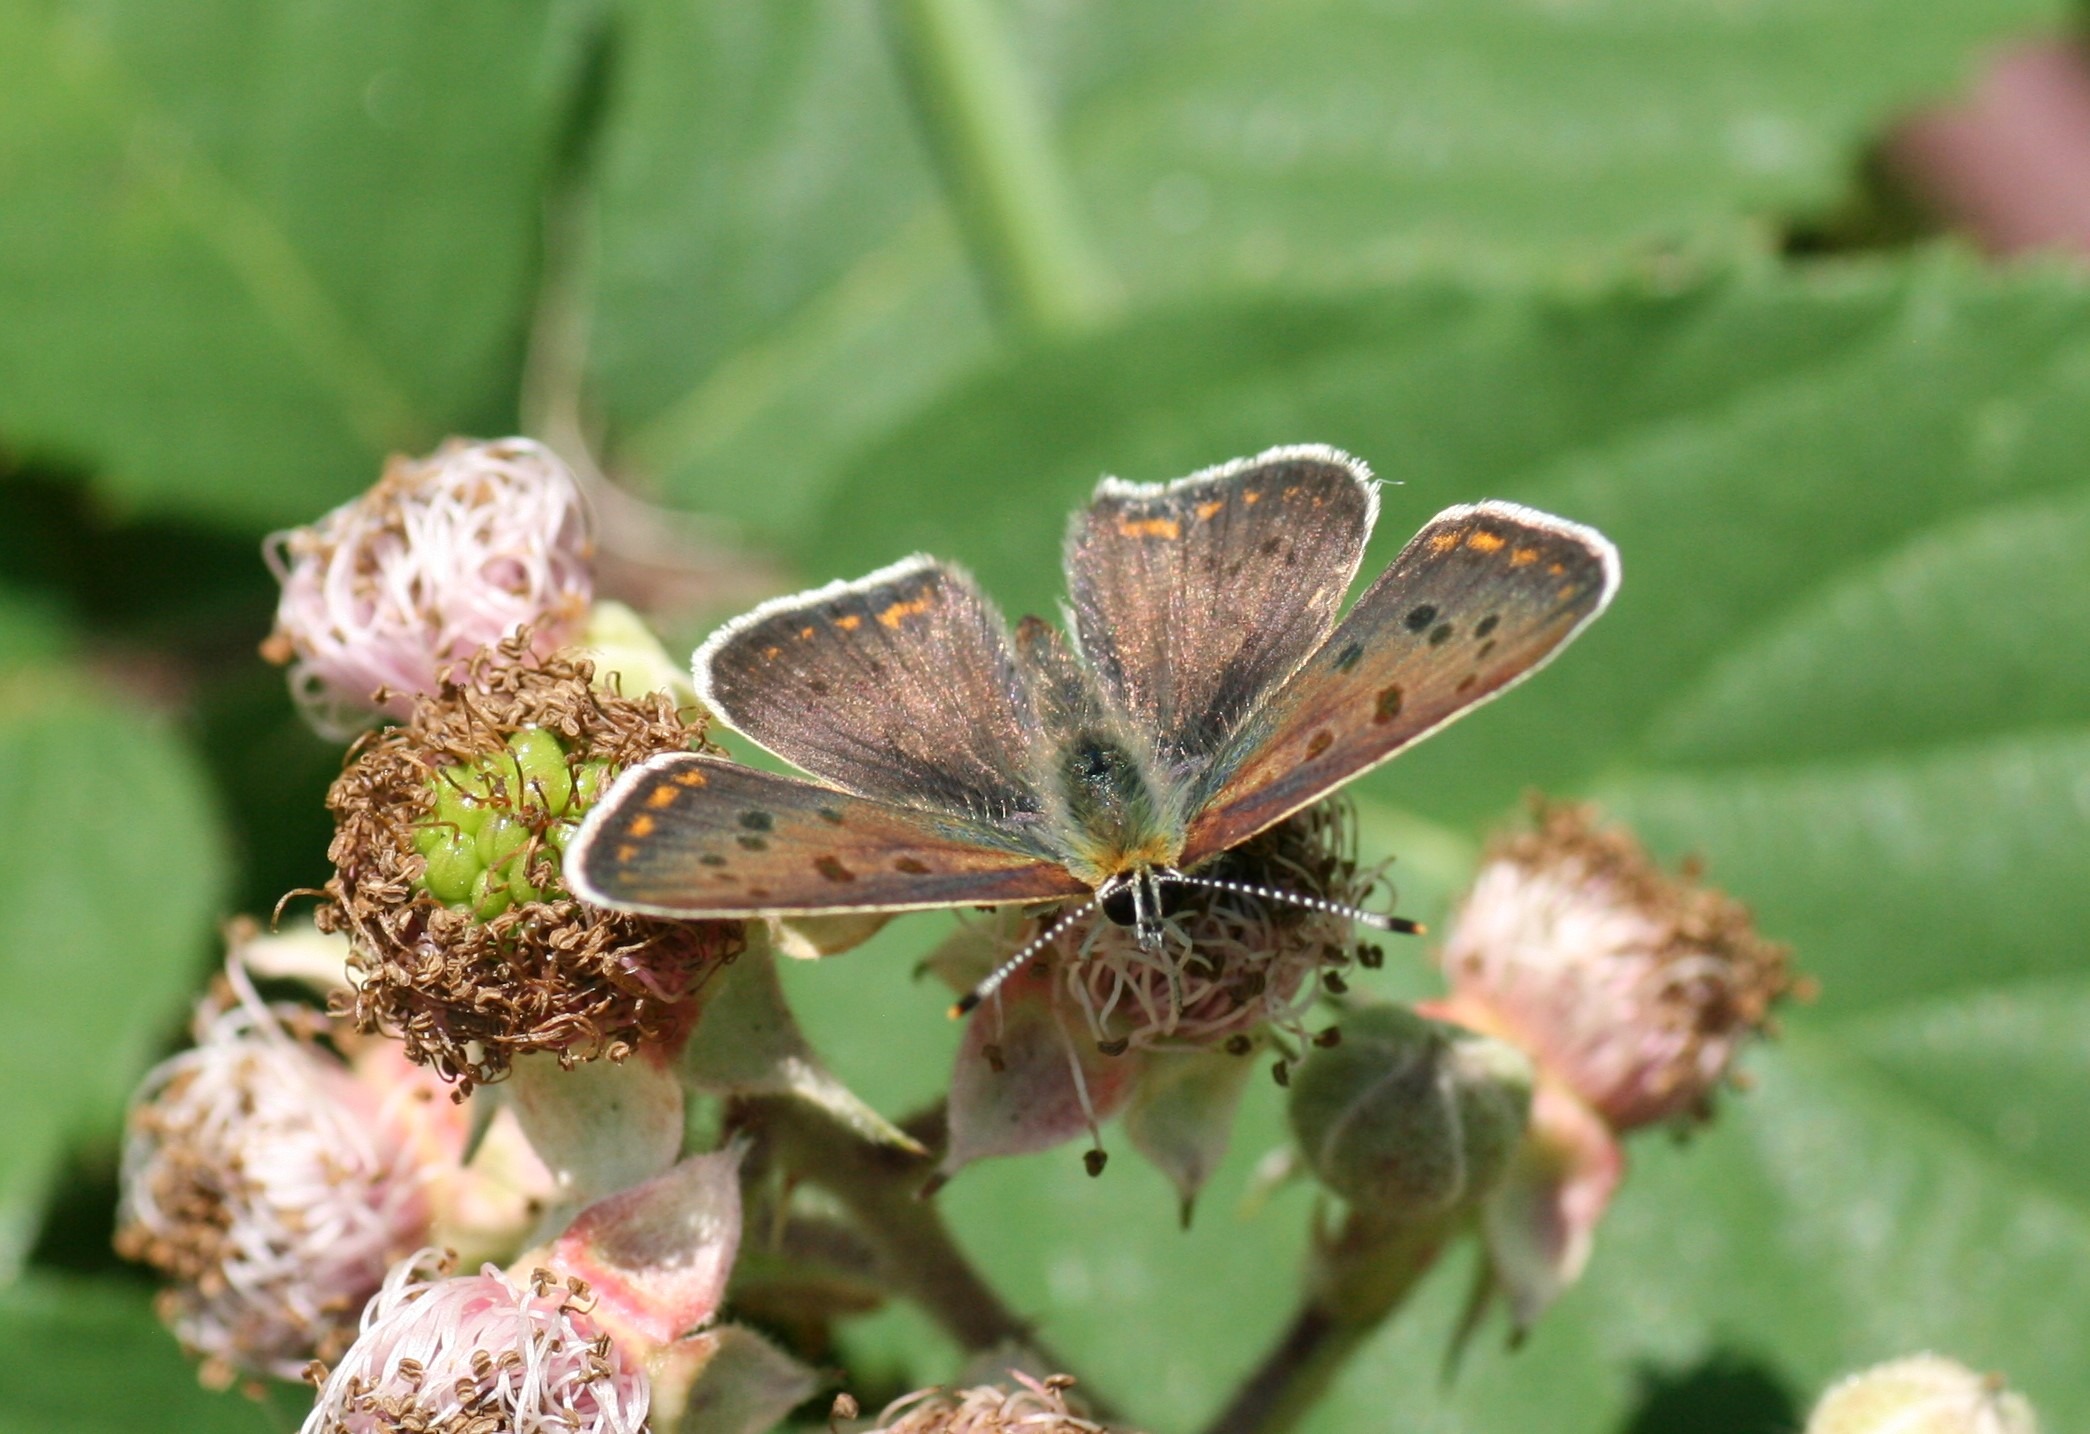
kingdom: Animalia
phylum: Arthropoda
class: Insecta
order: Lepidoptera
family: Lycaenidae
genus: Loweia
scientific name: Loweia tityrus
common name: Sort ildfugl
